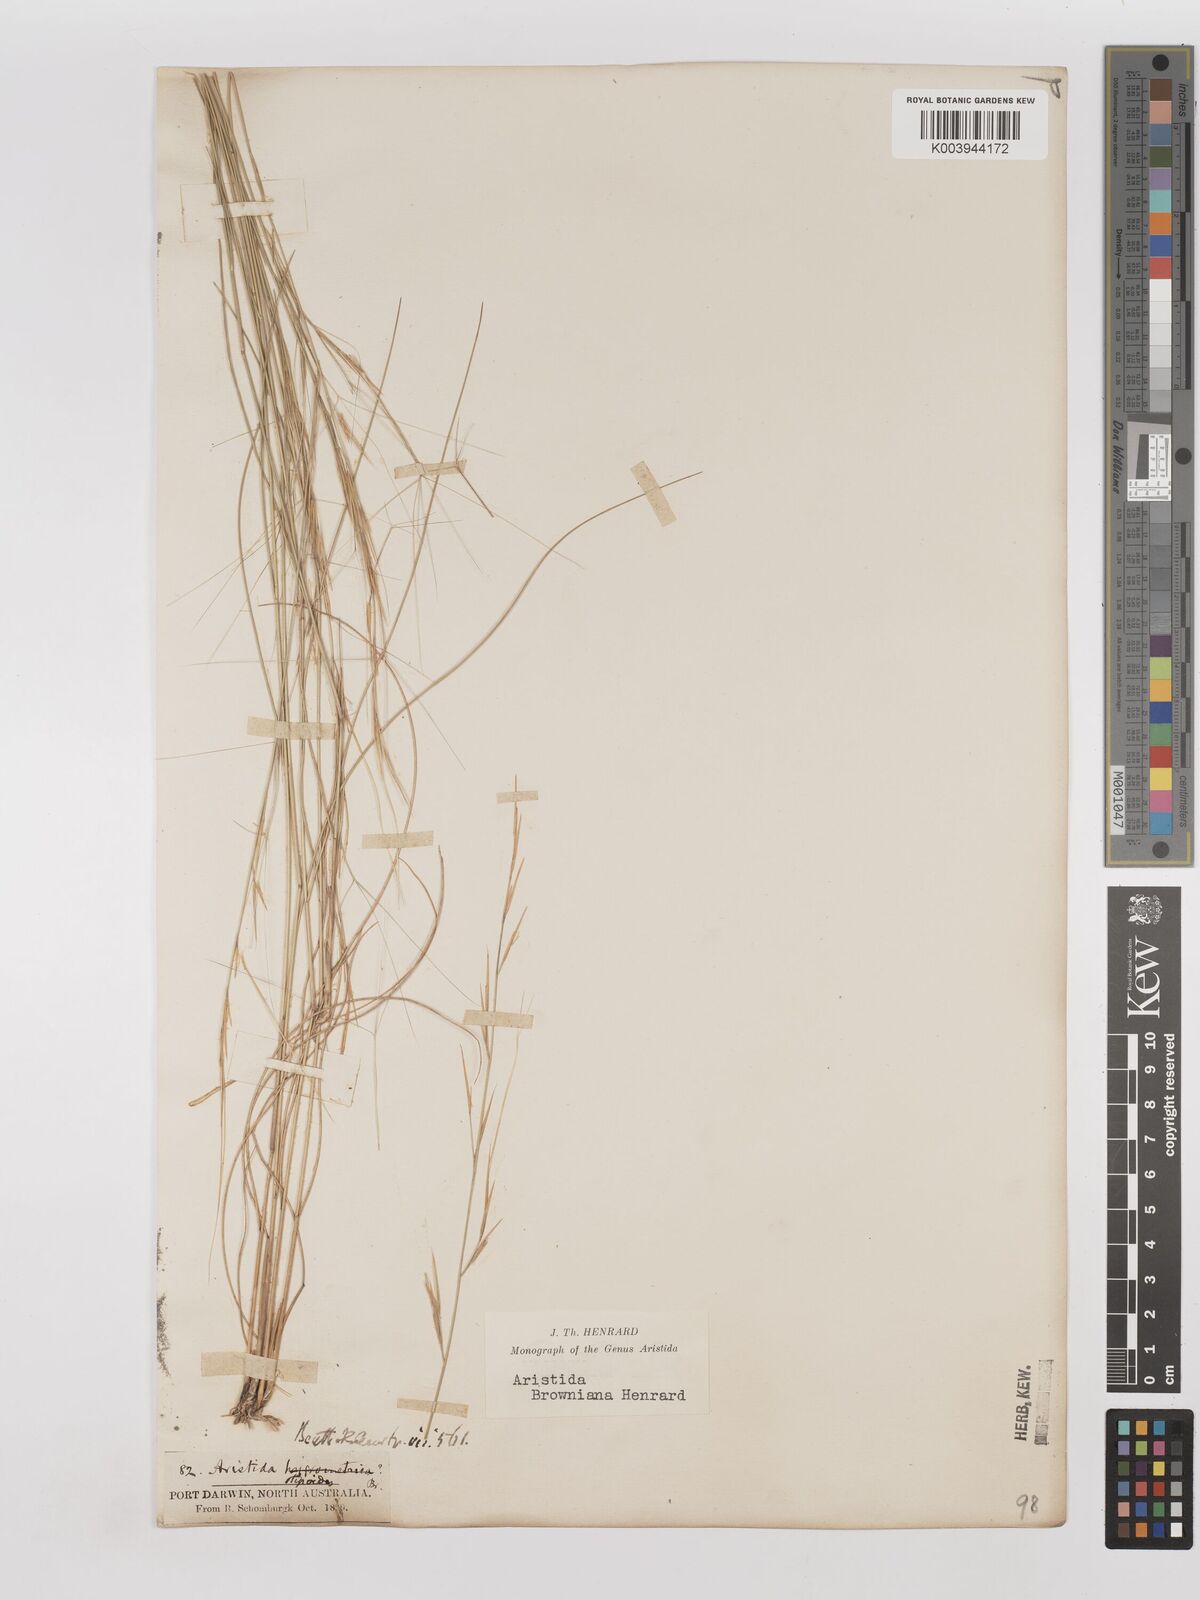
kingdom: Plantae
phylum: Tracheophyta
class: Liliopsida
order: Poales
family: Poaceae
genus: Aristida
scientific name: Aristida holathera
